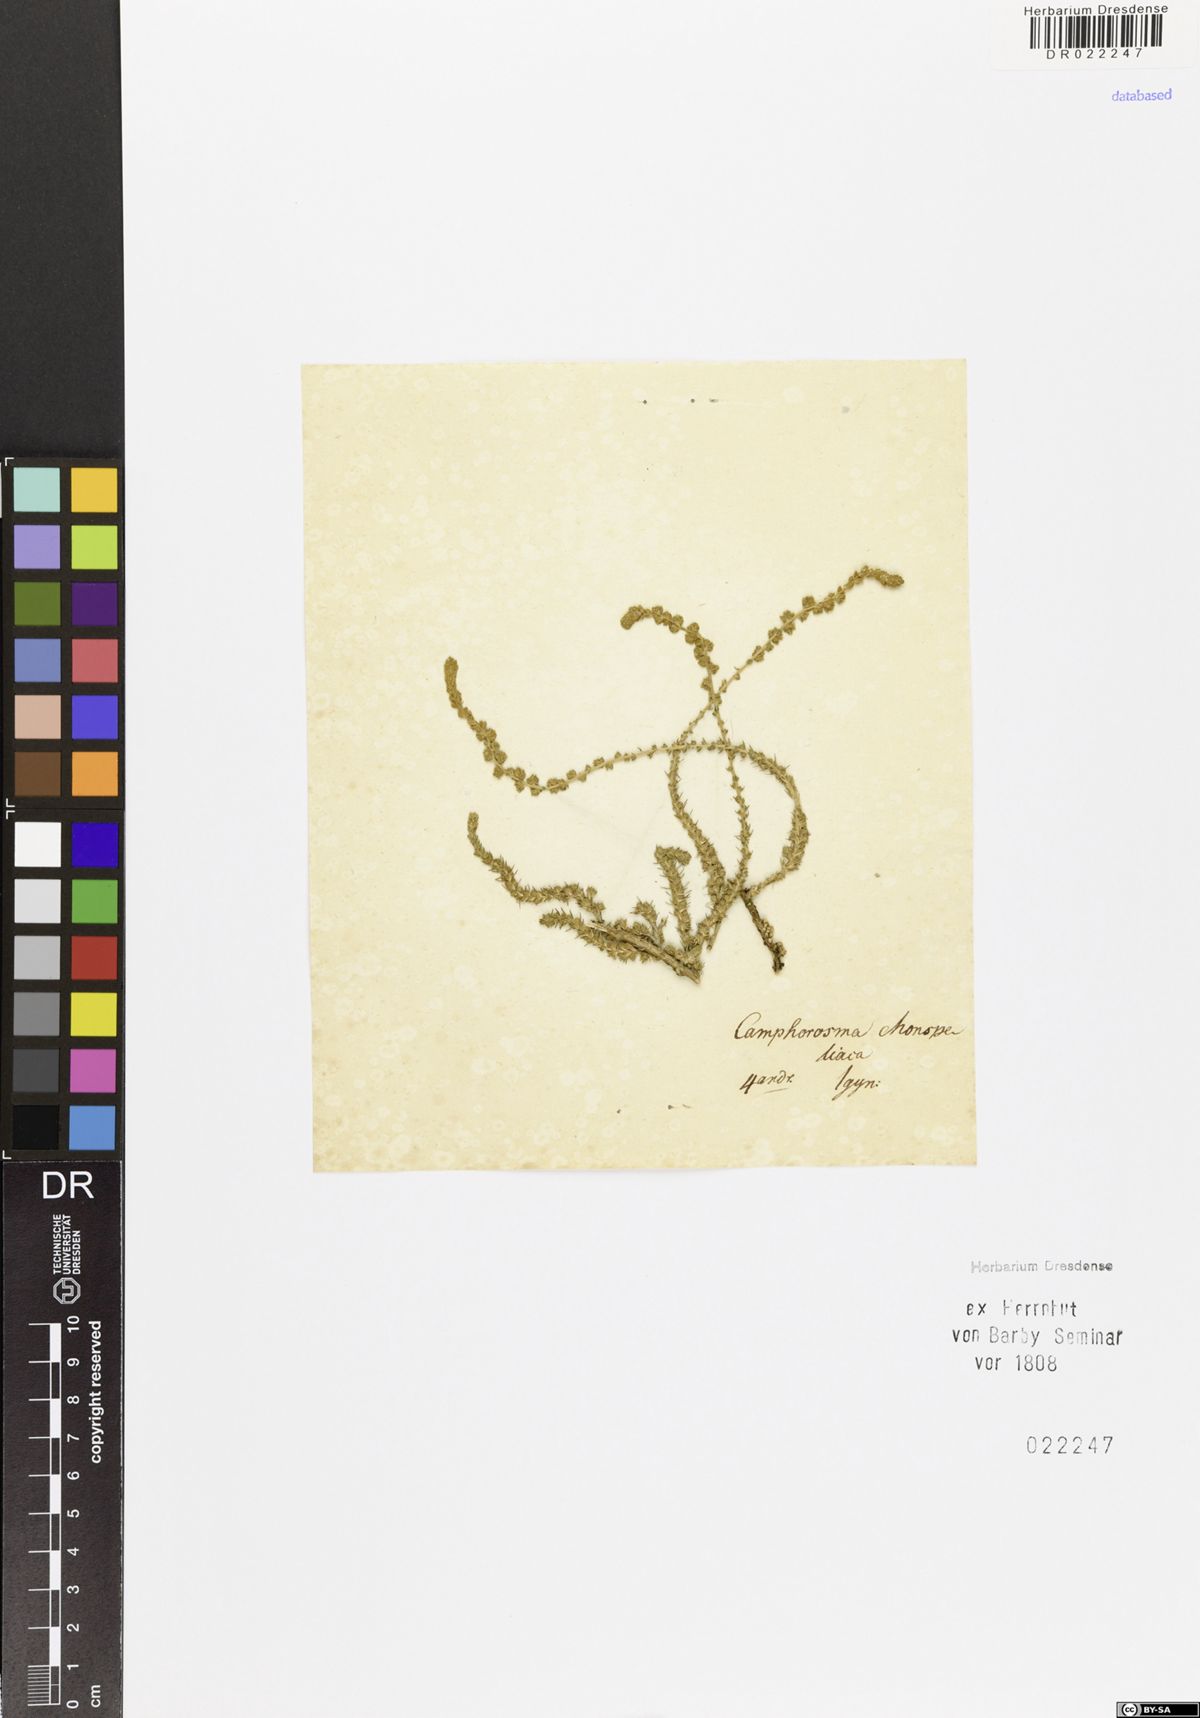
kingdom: Plantae
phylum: Tracheophyta
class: Magnoliopsida
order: Caryophyllales
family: Amaranthaceae
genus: Camphorosma
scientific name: Camphorosma monspeliaca
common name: Camphorfume
